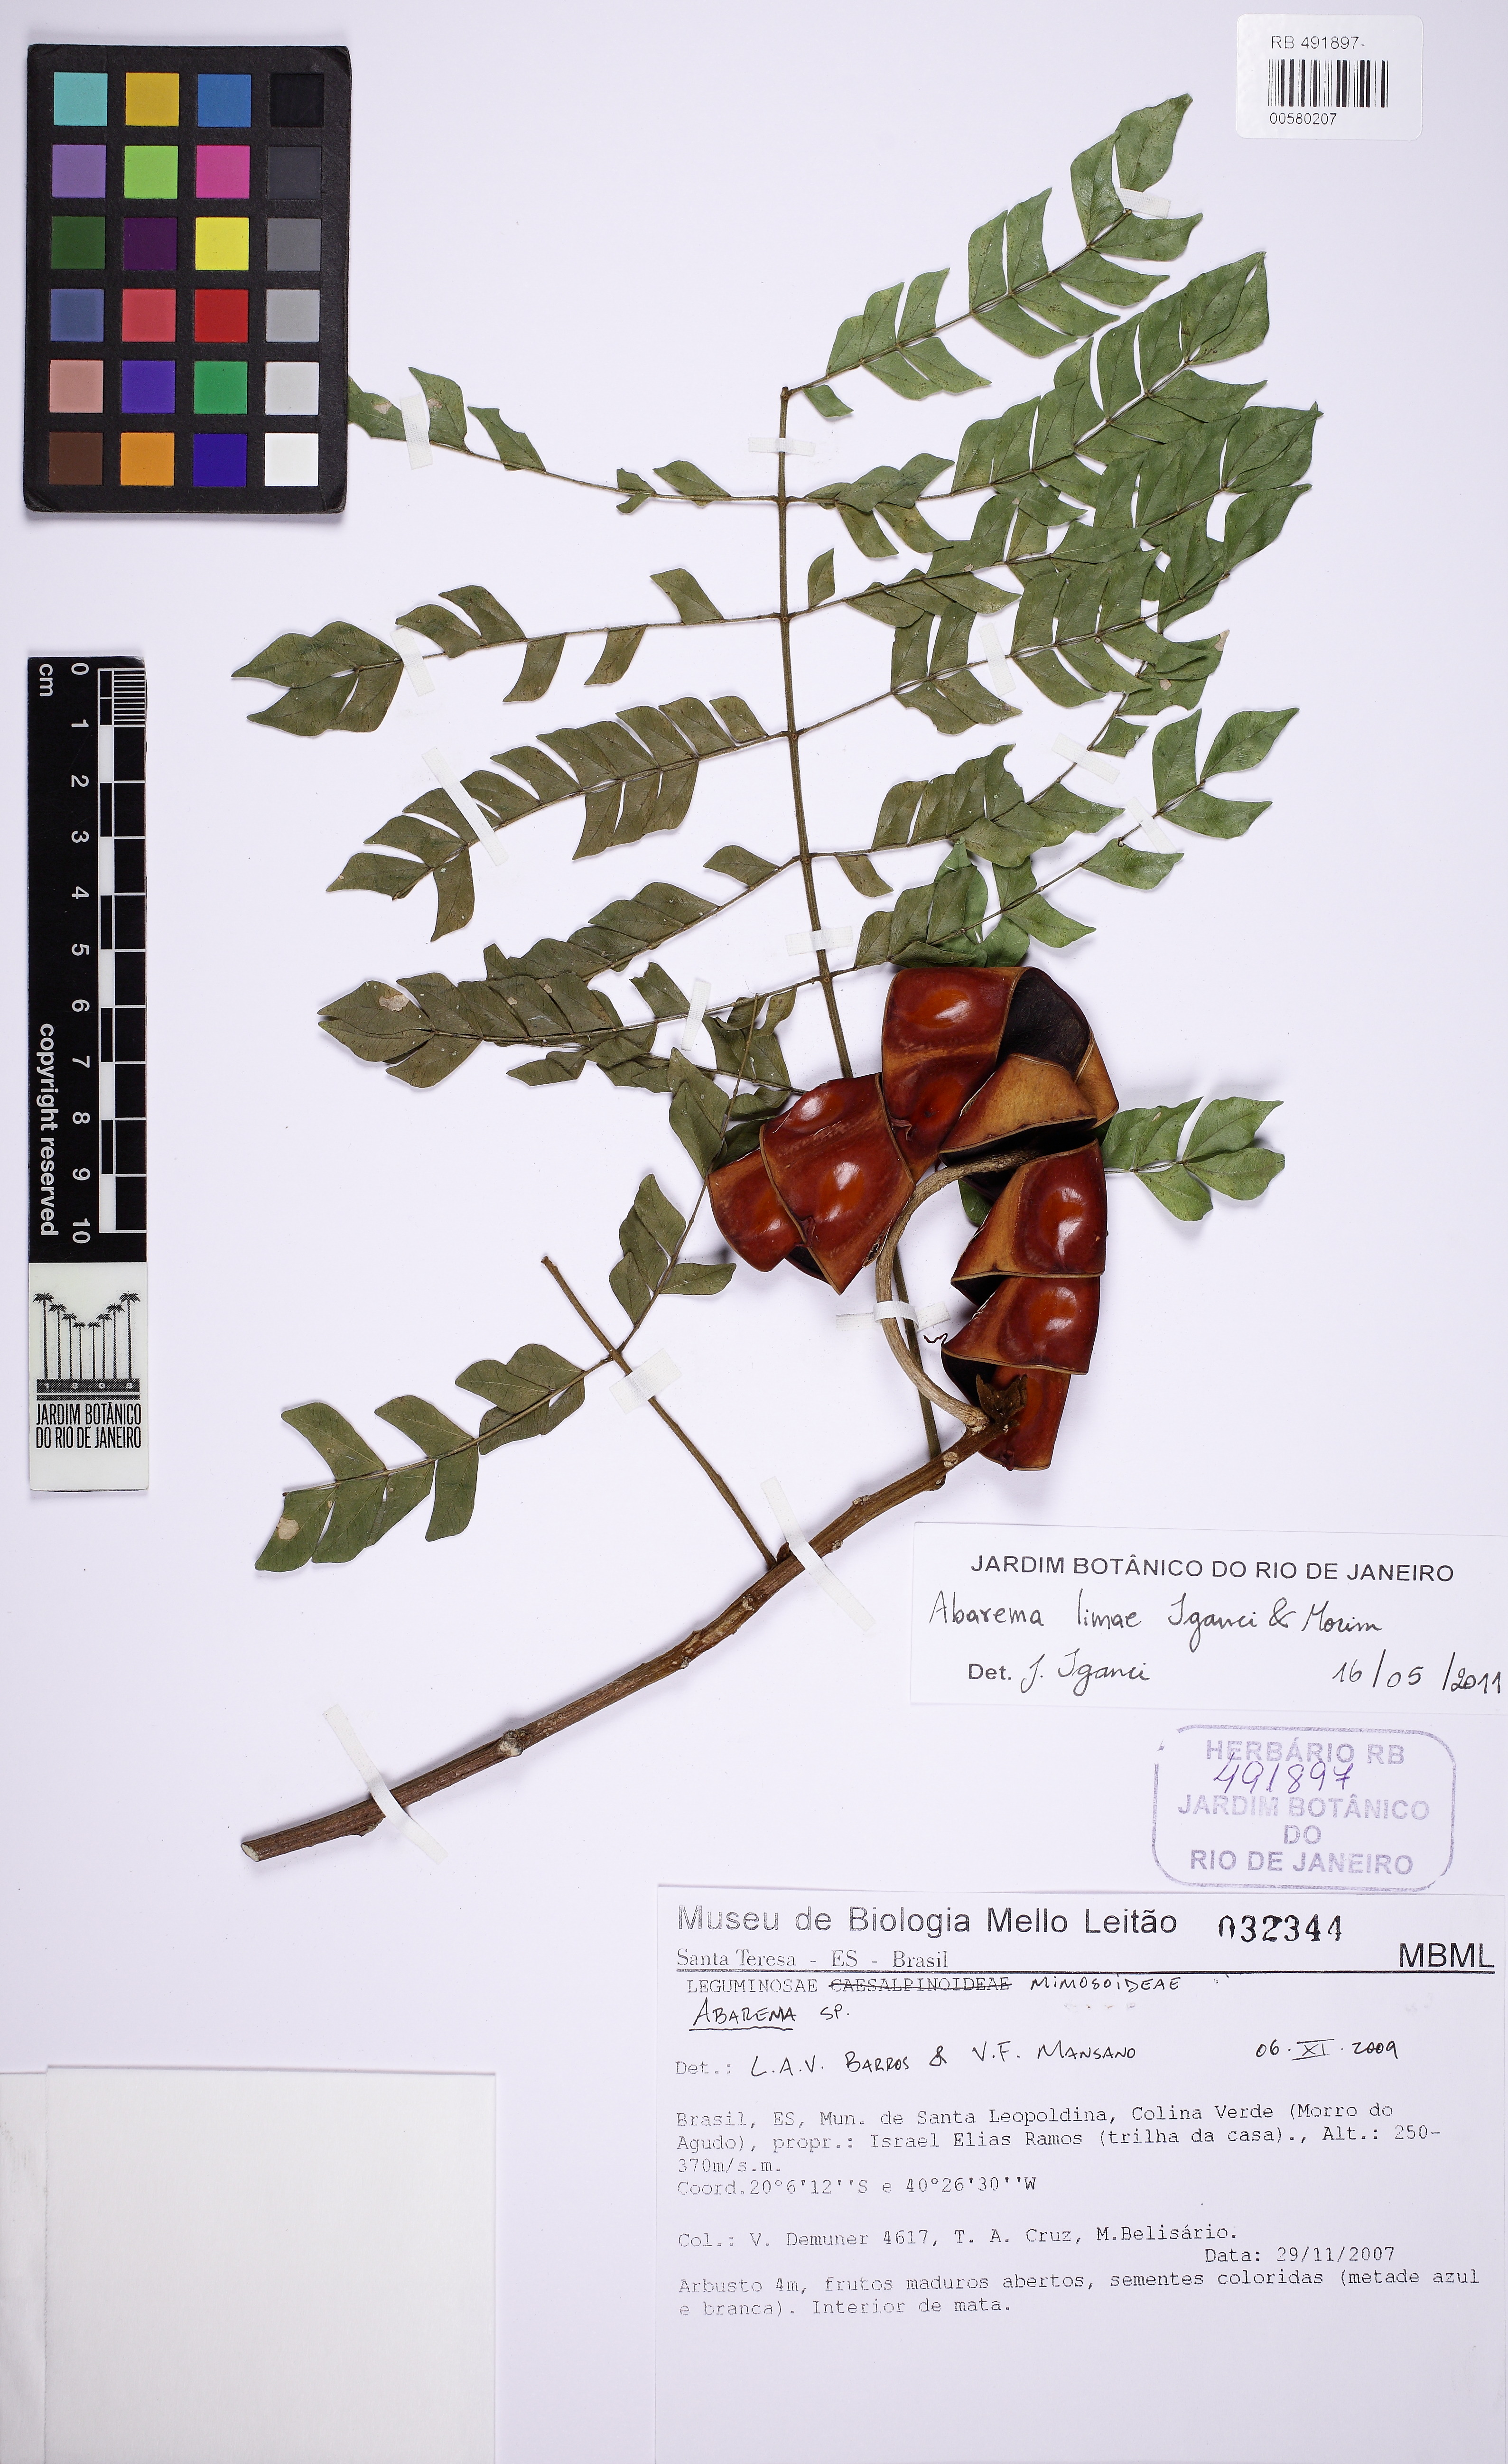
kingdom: Plantae
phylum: Tracheophyta
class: Magnoliopsida
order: Fabales
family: Fabaceae
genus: Jupunba
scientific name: Jupunba rhombea
